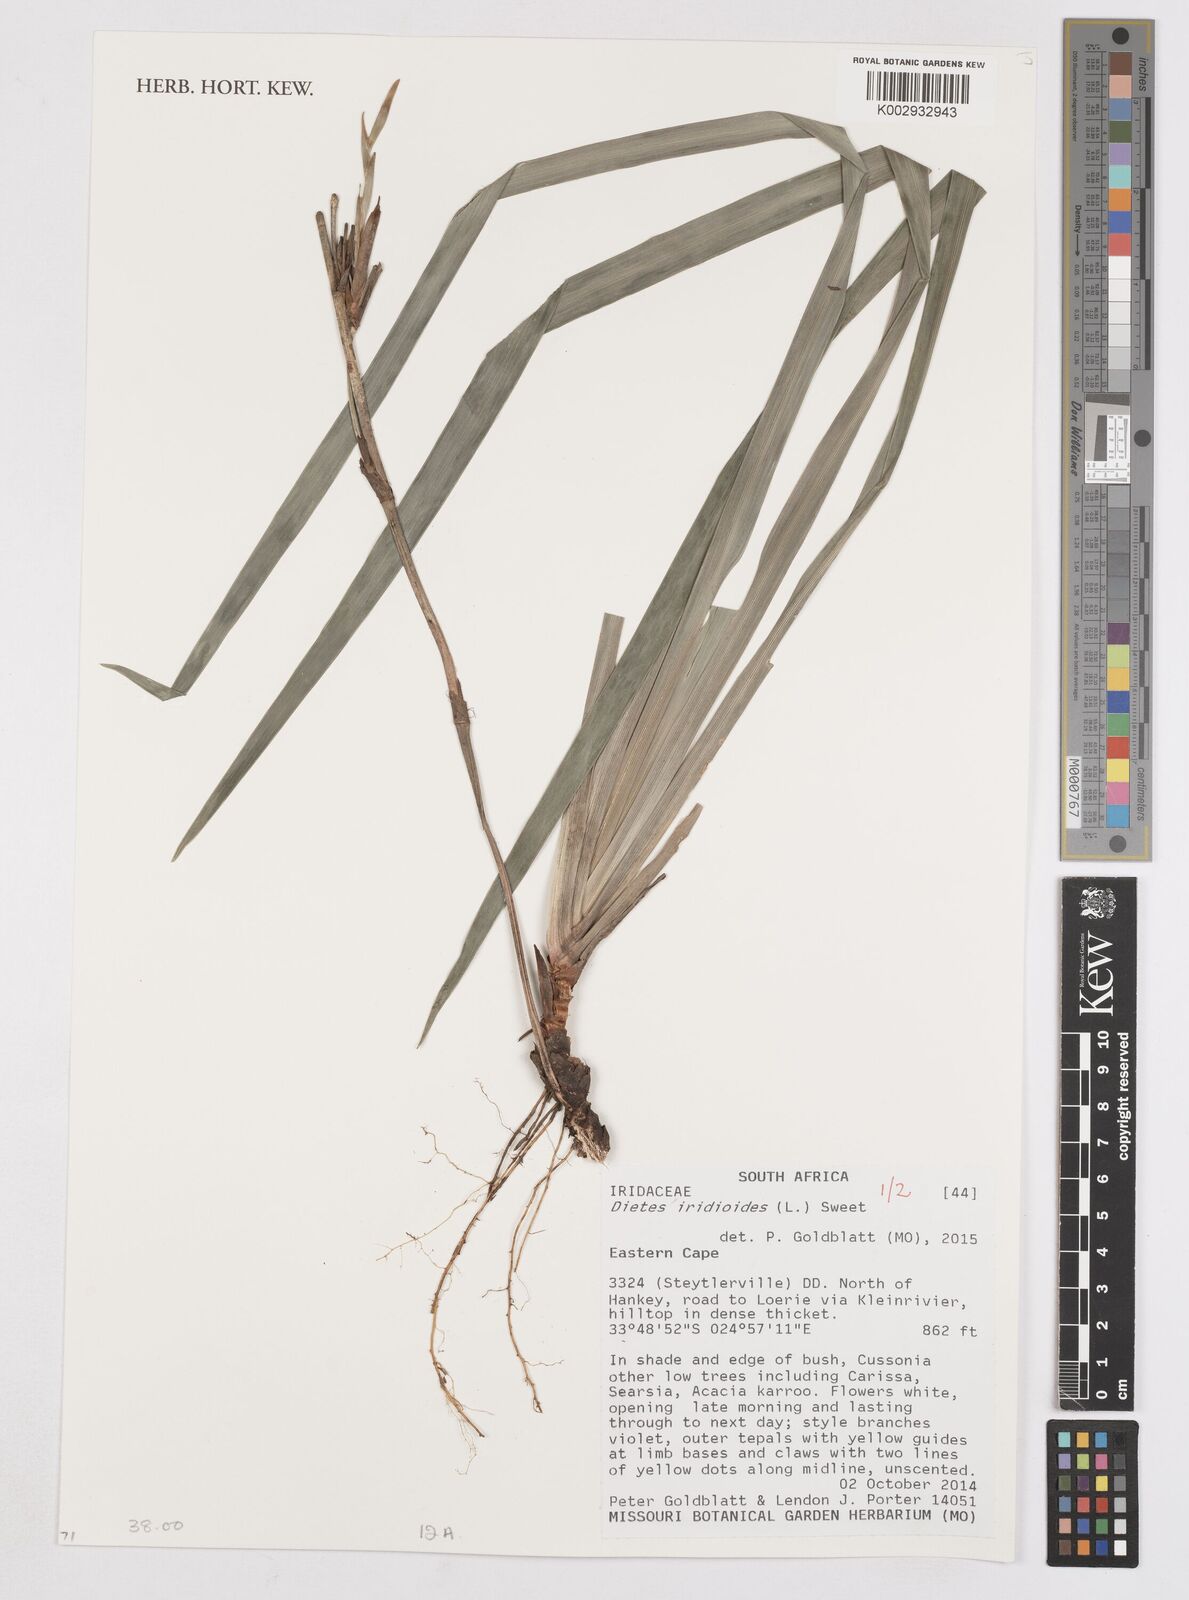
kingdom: Plantae
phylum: Tracheophyta
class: Liliopsida
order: Asparagales
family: Iridaceae
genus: Dietes
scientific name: Dietes iridioides
